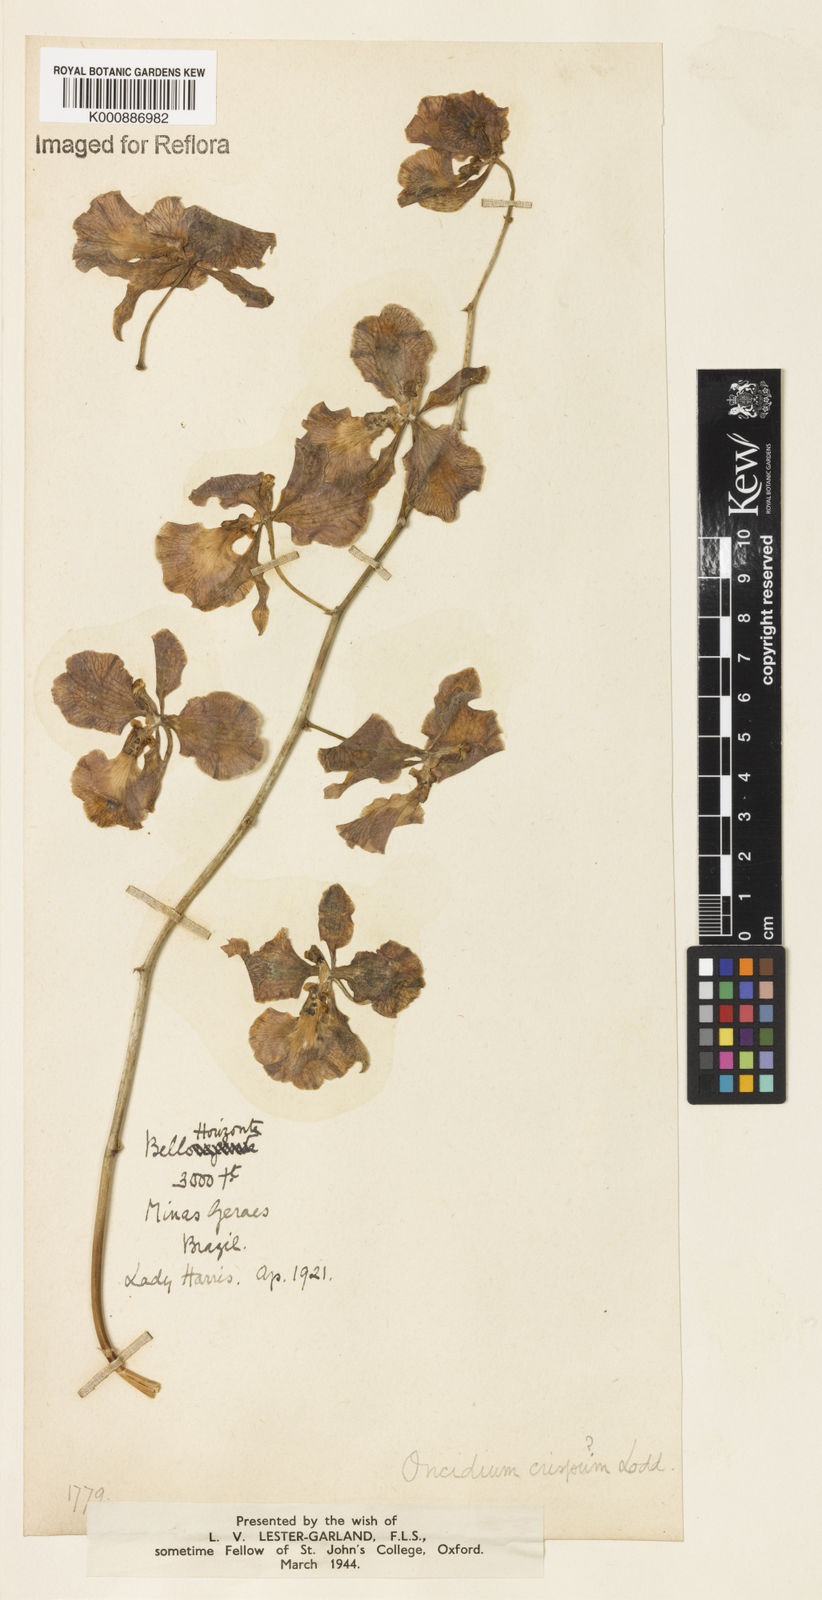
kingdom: Plantae
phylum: Tracheophyta
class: Liliopsida
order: Asparagales
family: Orchidaceae
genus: Gomesa
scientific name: Gomesa imperatoris-maximiliani
